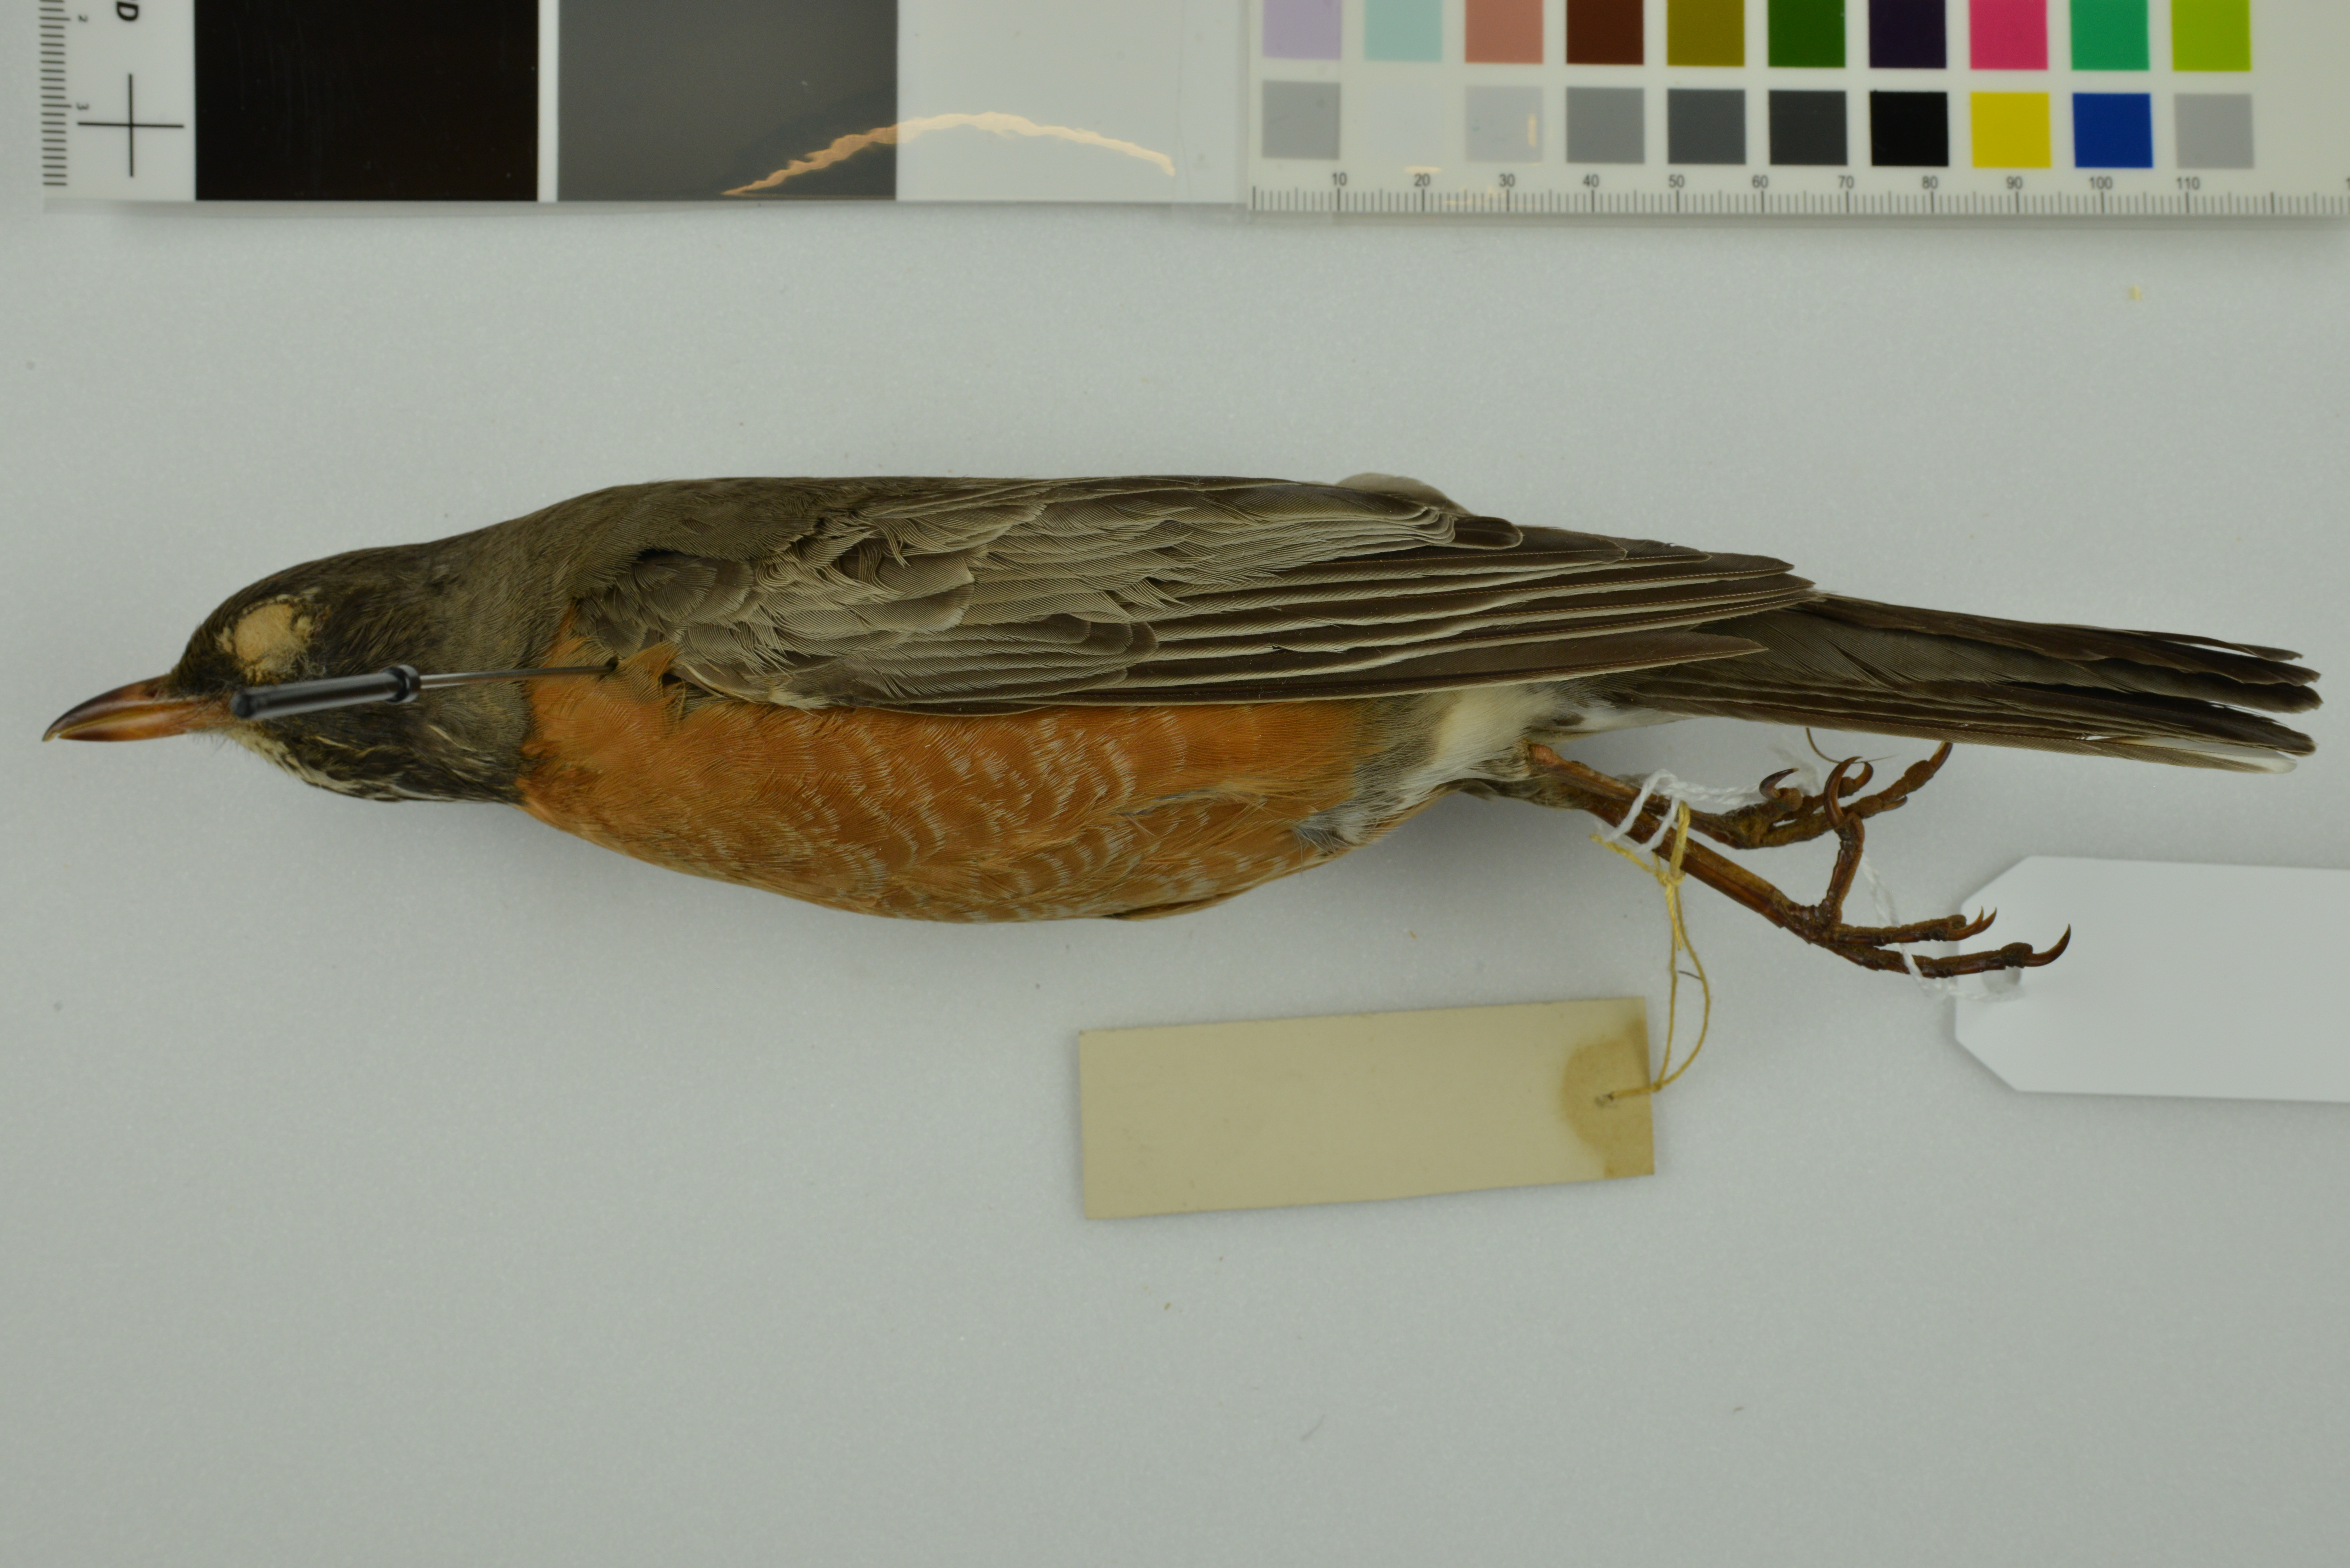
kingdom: Animalia
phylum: Chordata
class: Aves
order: Passeriformes
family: Turdidae
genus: Turdus
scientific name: Turdus migratorius
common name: American robin
